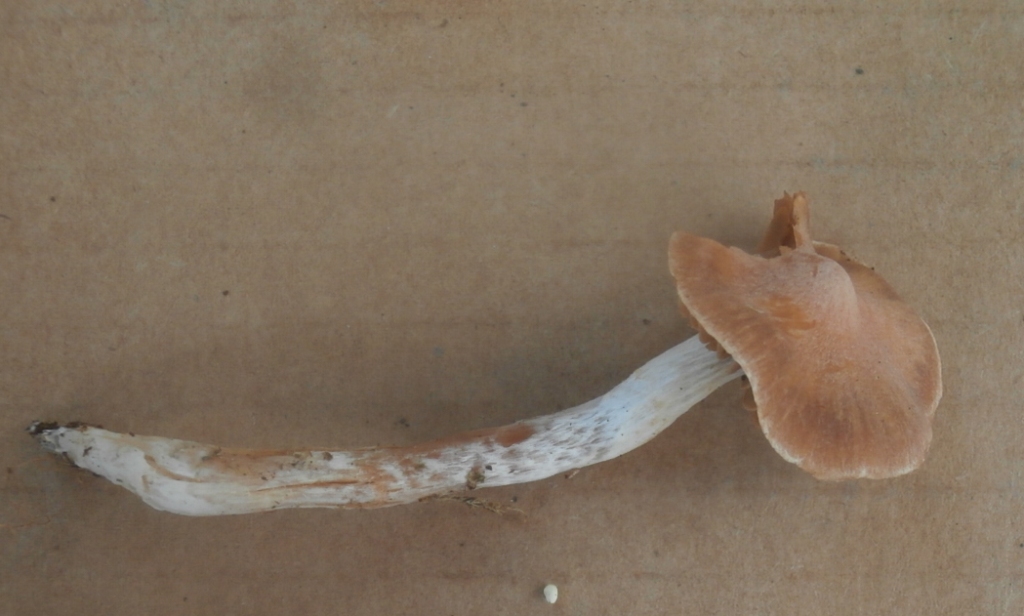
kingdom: Fungi
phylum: Basidiomycota
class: Agaricomycetes
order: Agaricales
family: Cortinariaceae
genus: Cortinarius
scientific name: Cortinarius
